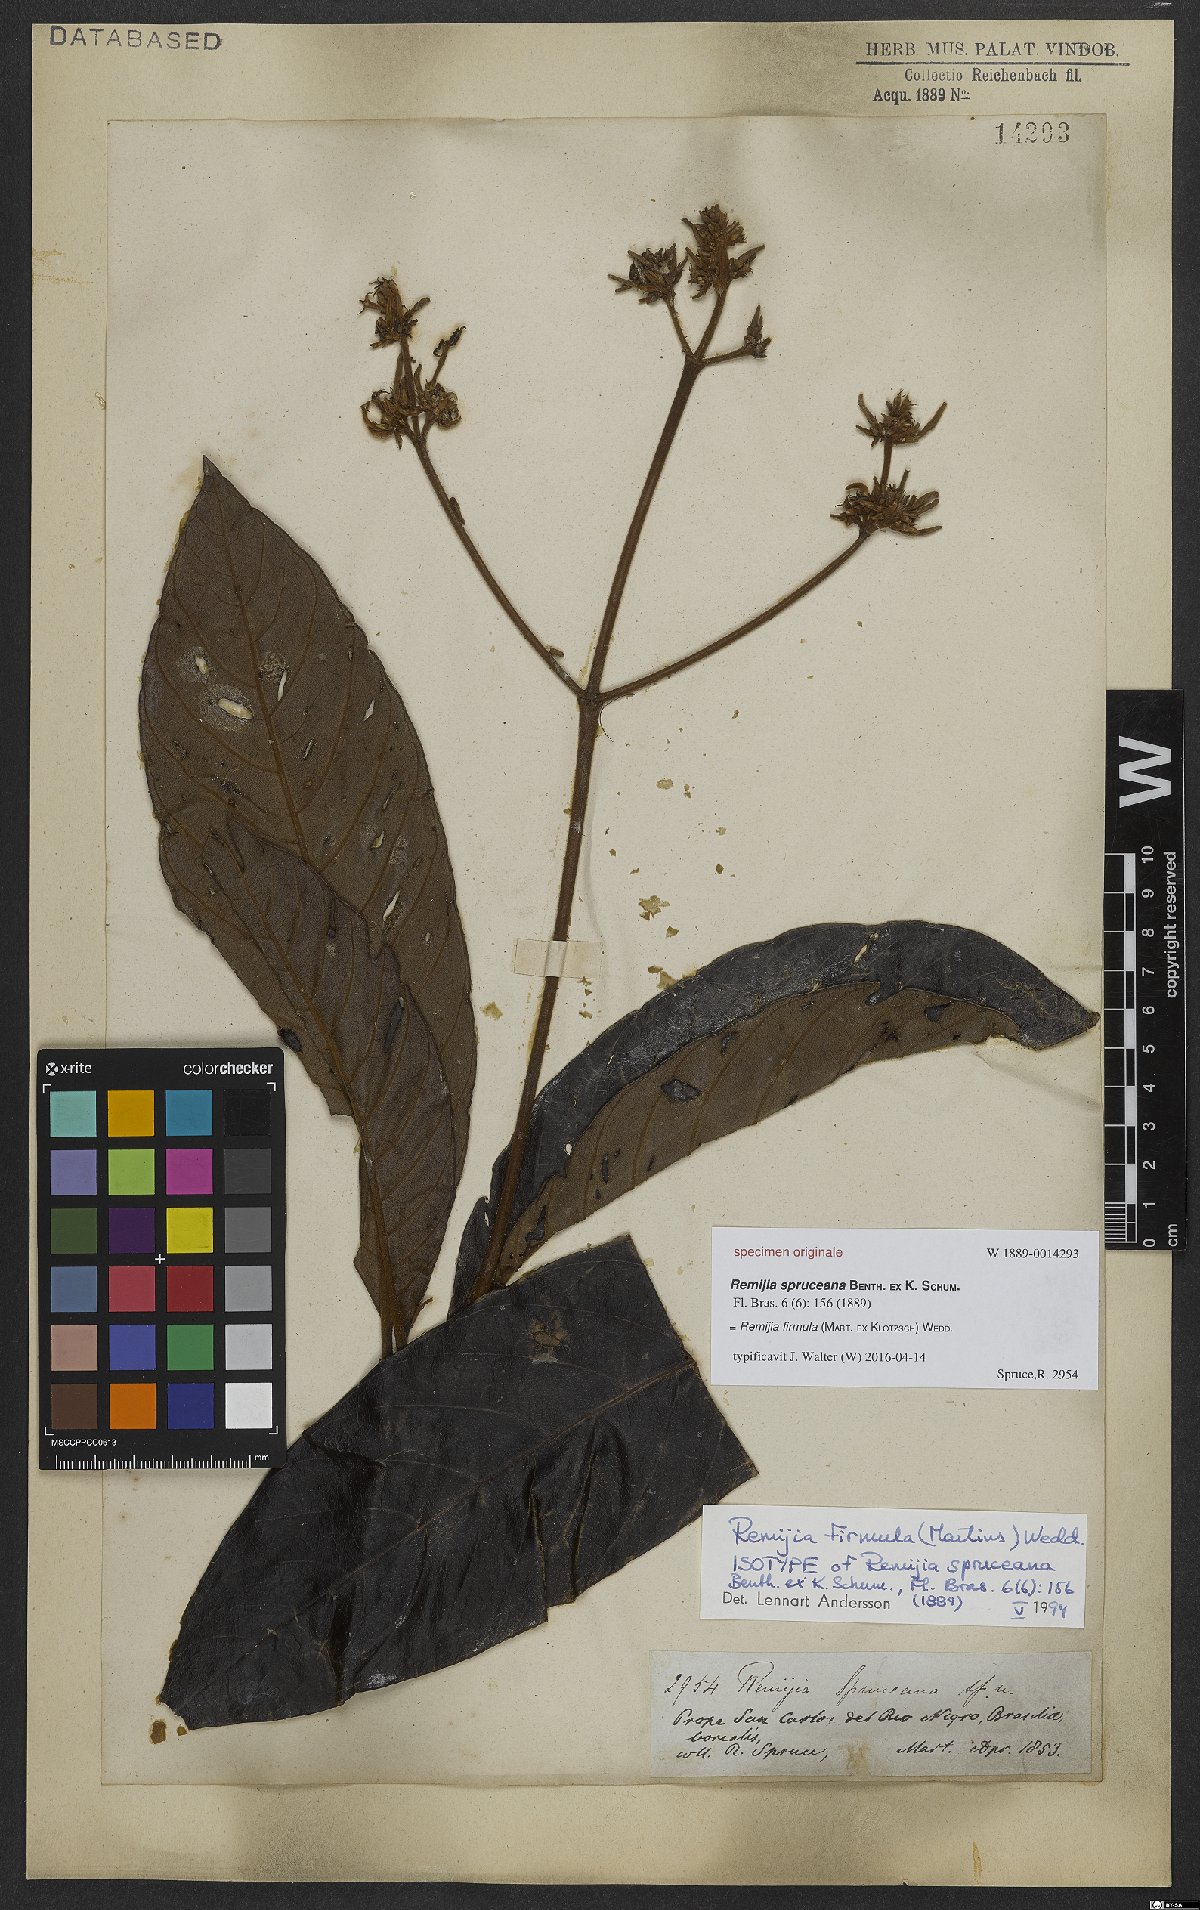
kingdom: Plantae
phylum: Tracheophyta
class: Magnoliopsida
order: Gentianales
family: Rubiaceae
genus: Remijia
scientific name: Remijia firmula
